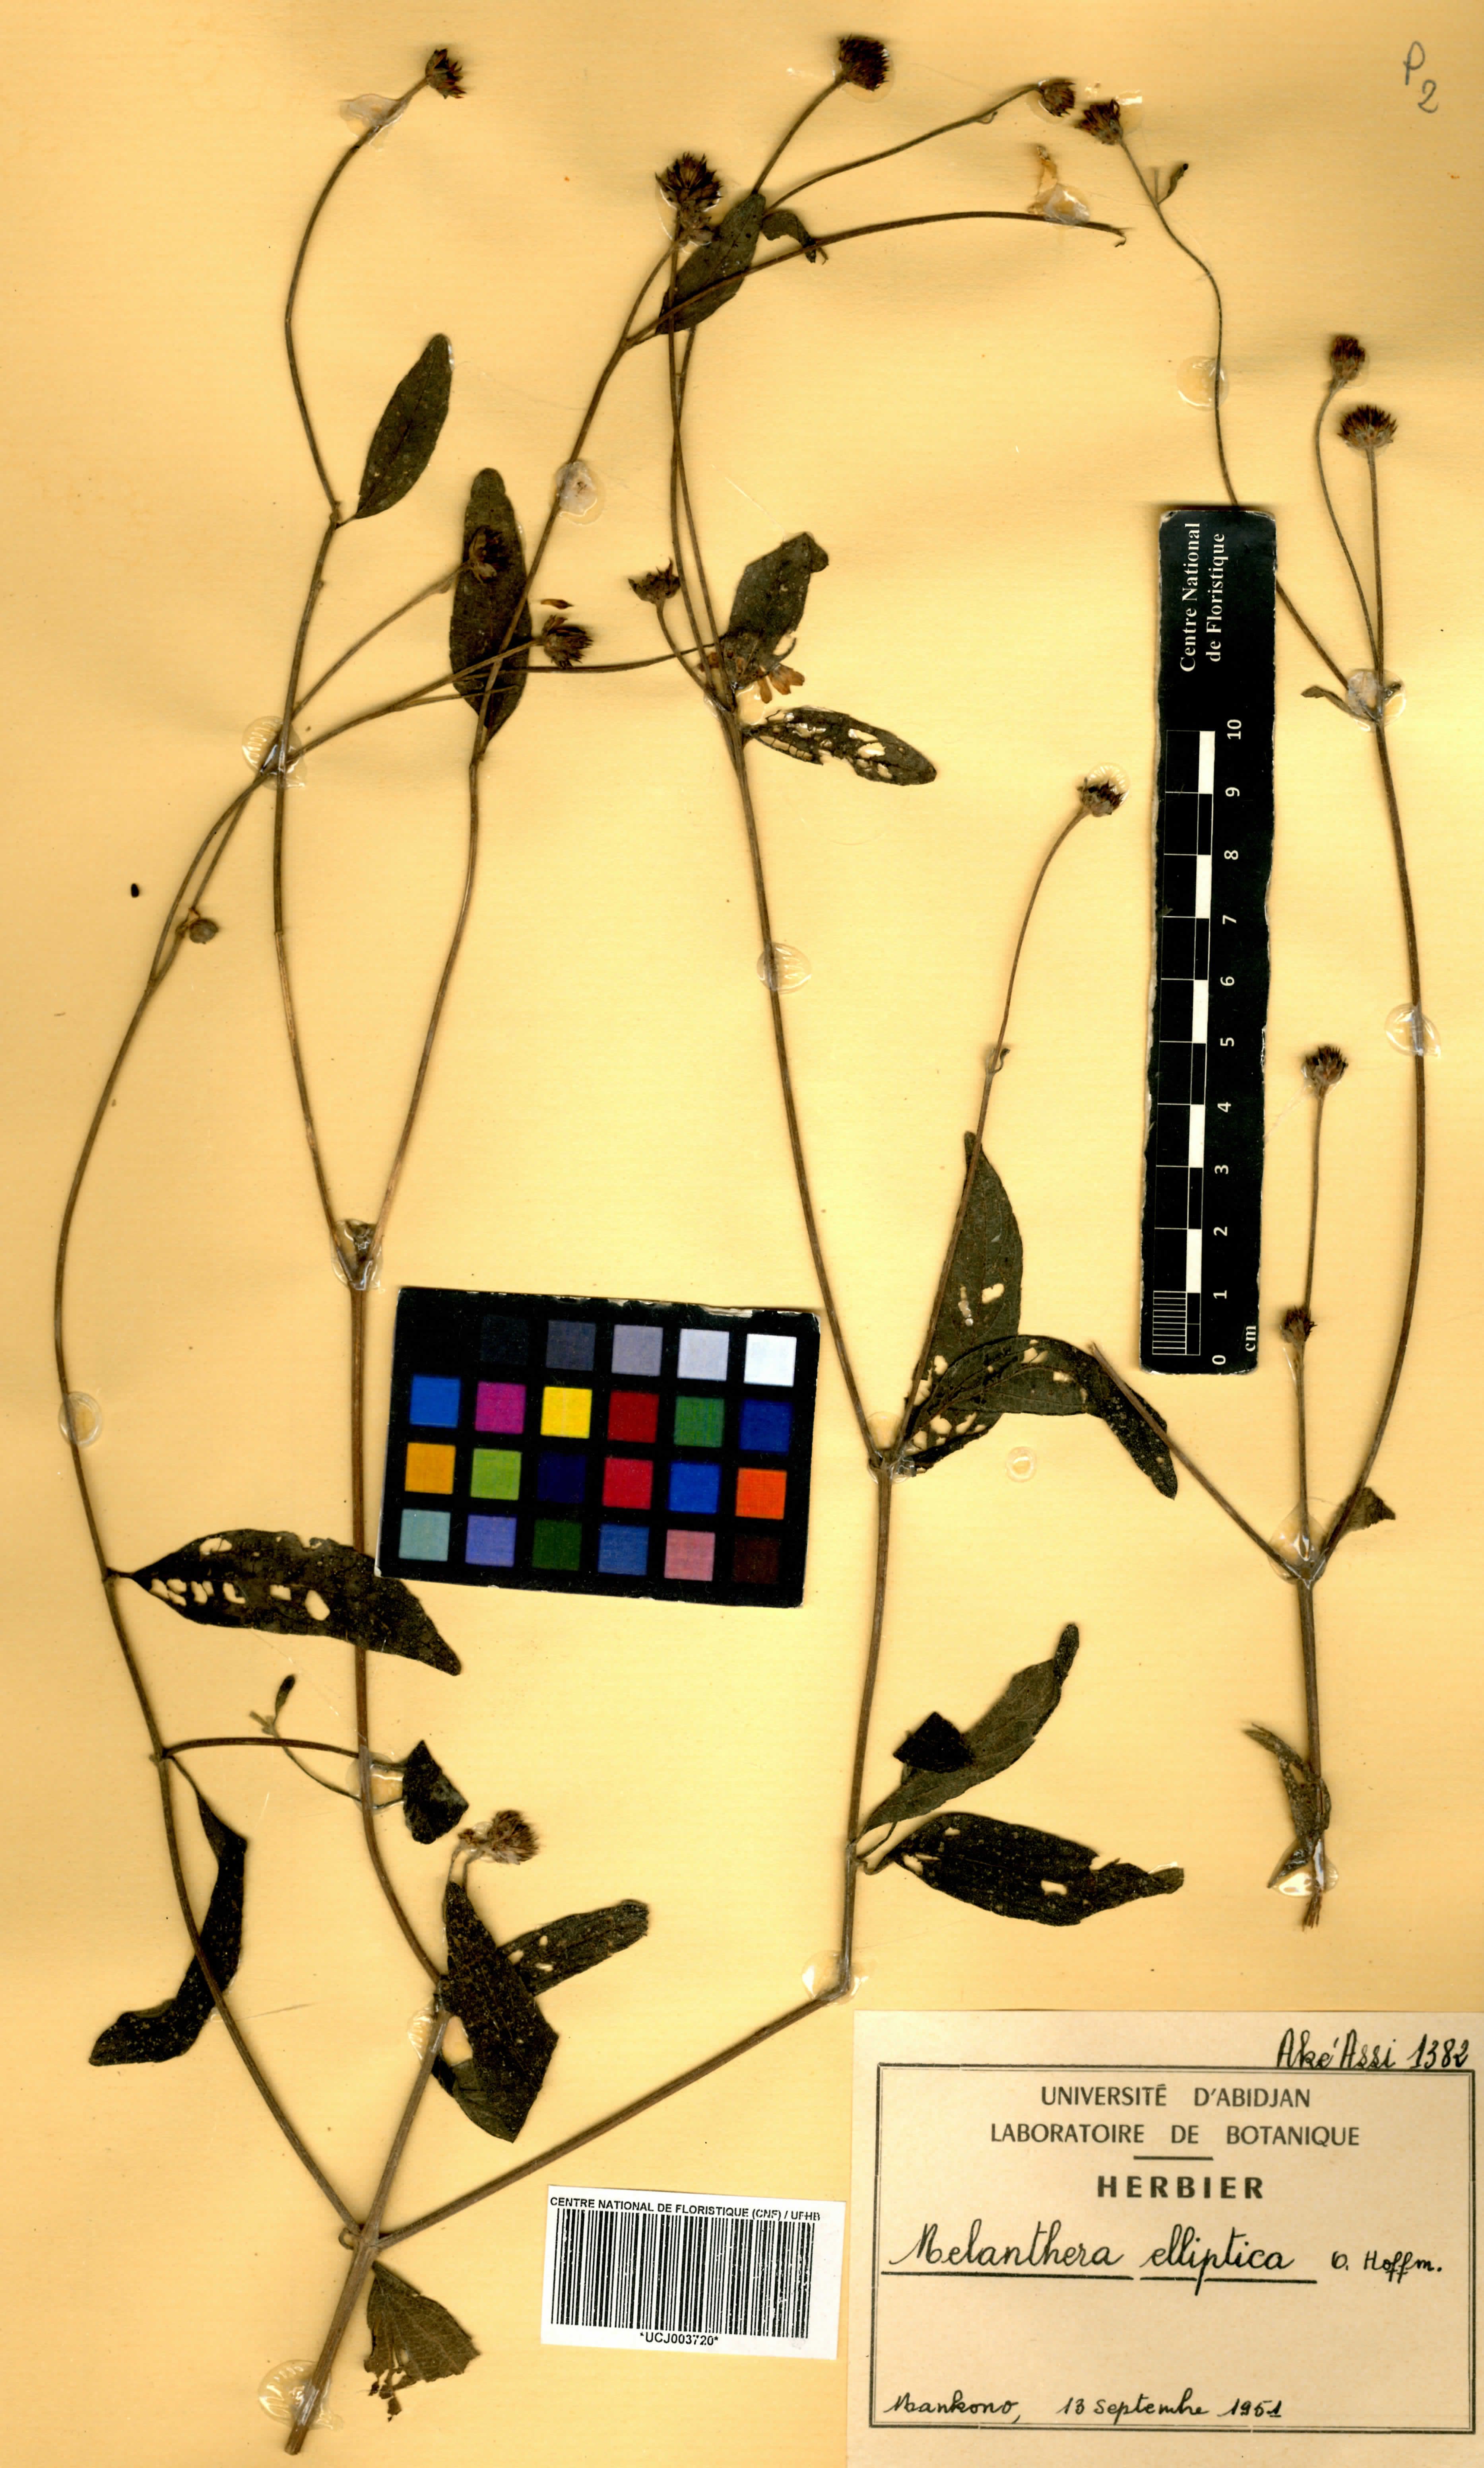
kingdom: Plantae
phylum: Tracheophyta
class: Magnoliopsida
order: Asterales
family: Asteraceae
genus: Lipotriche
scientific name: Lipotriche elliptica
